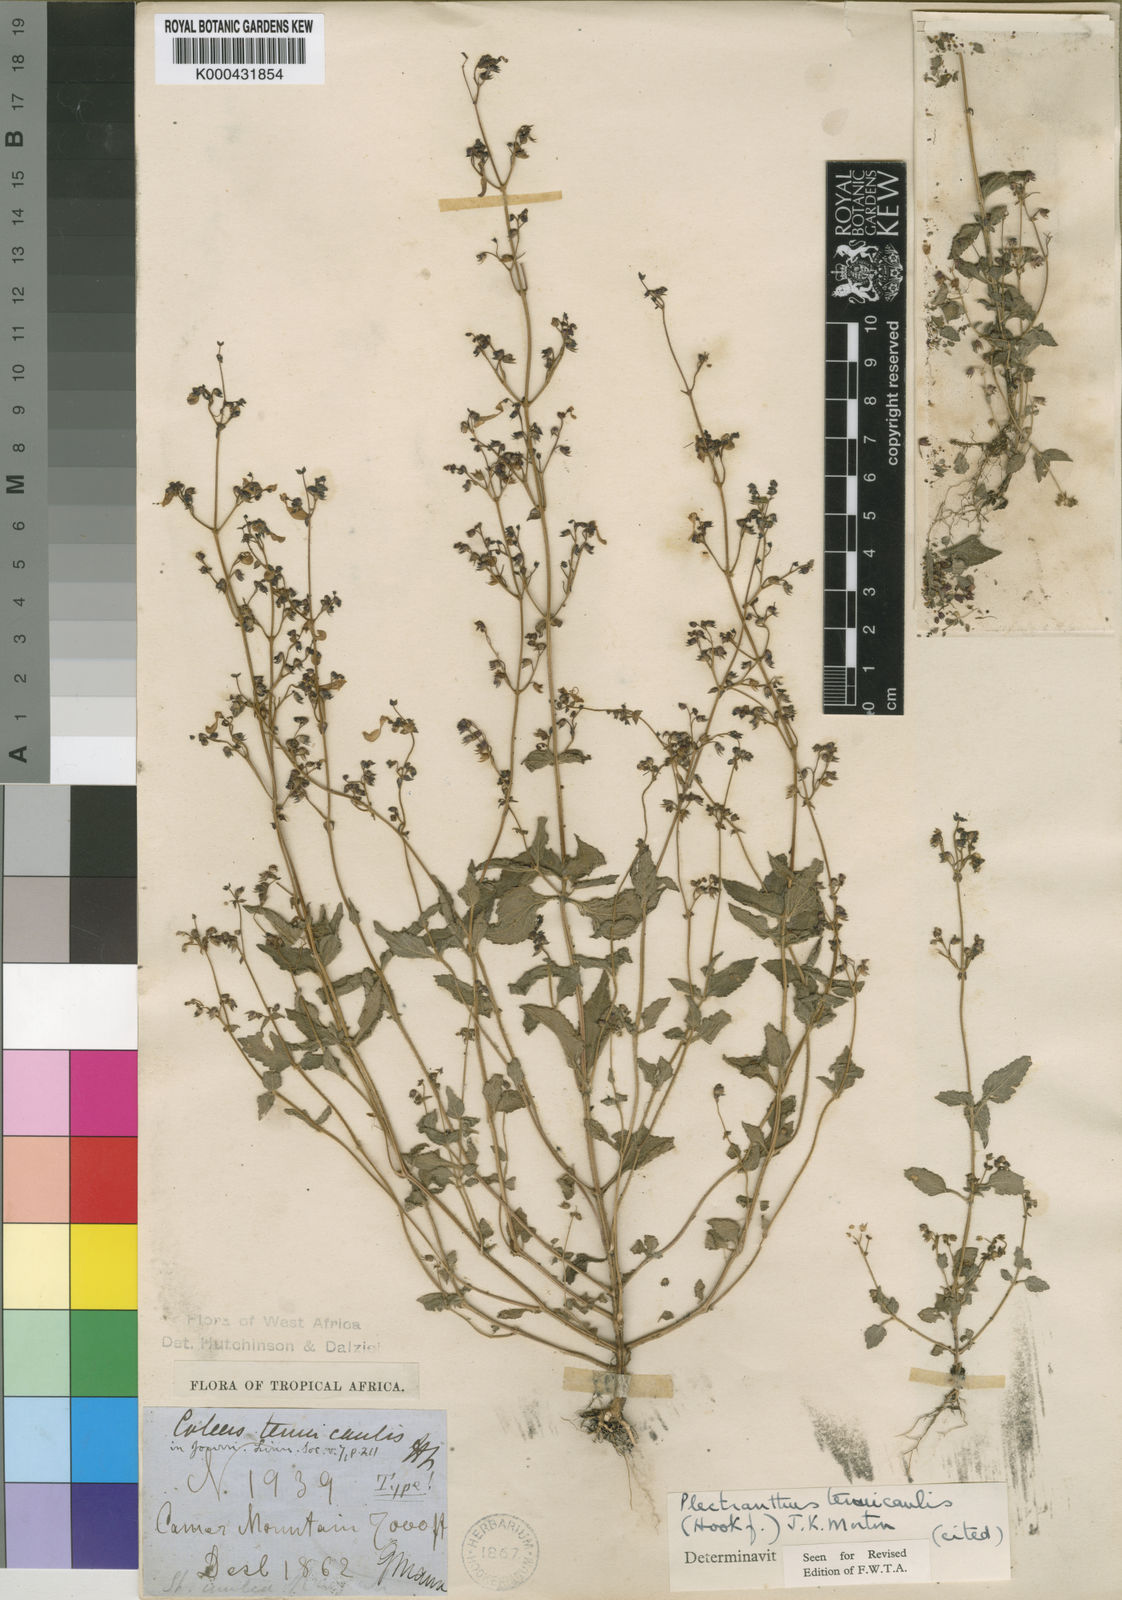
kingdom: Plantae
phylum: Tracheophyta
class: Magnoliopsida
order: Lamiales
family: Lamiaceae
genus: Coleus
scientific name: Coleus tenuicaulis
